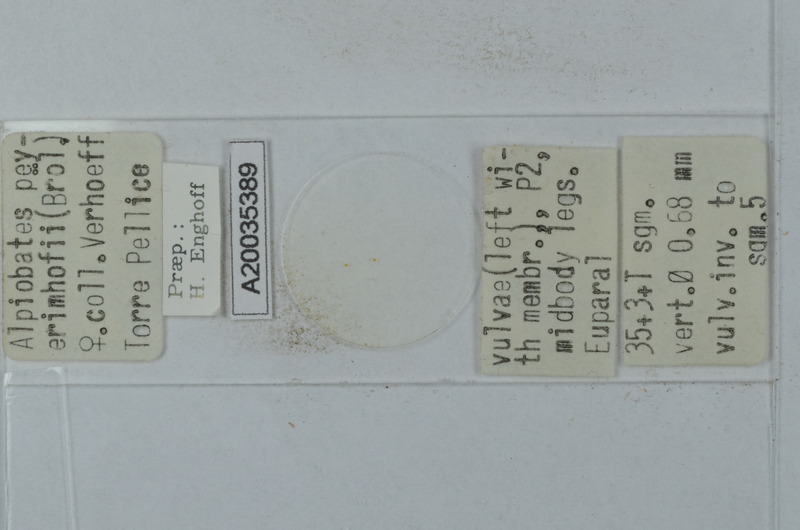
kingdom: Animalia
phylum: Arthropoda
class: Diplopoda
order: Julida
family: Blaniulidae
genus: Alpiobates
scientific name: Alpiobates peyerimhoffi
